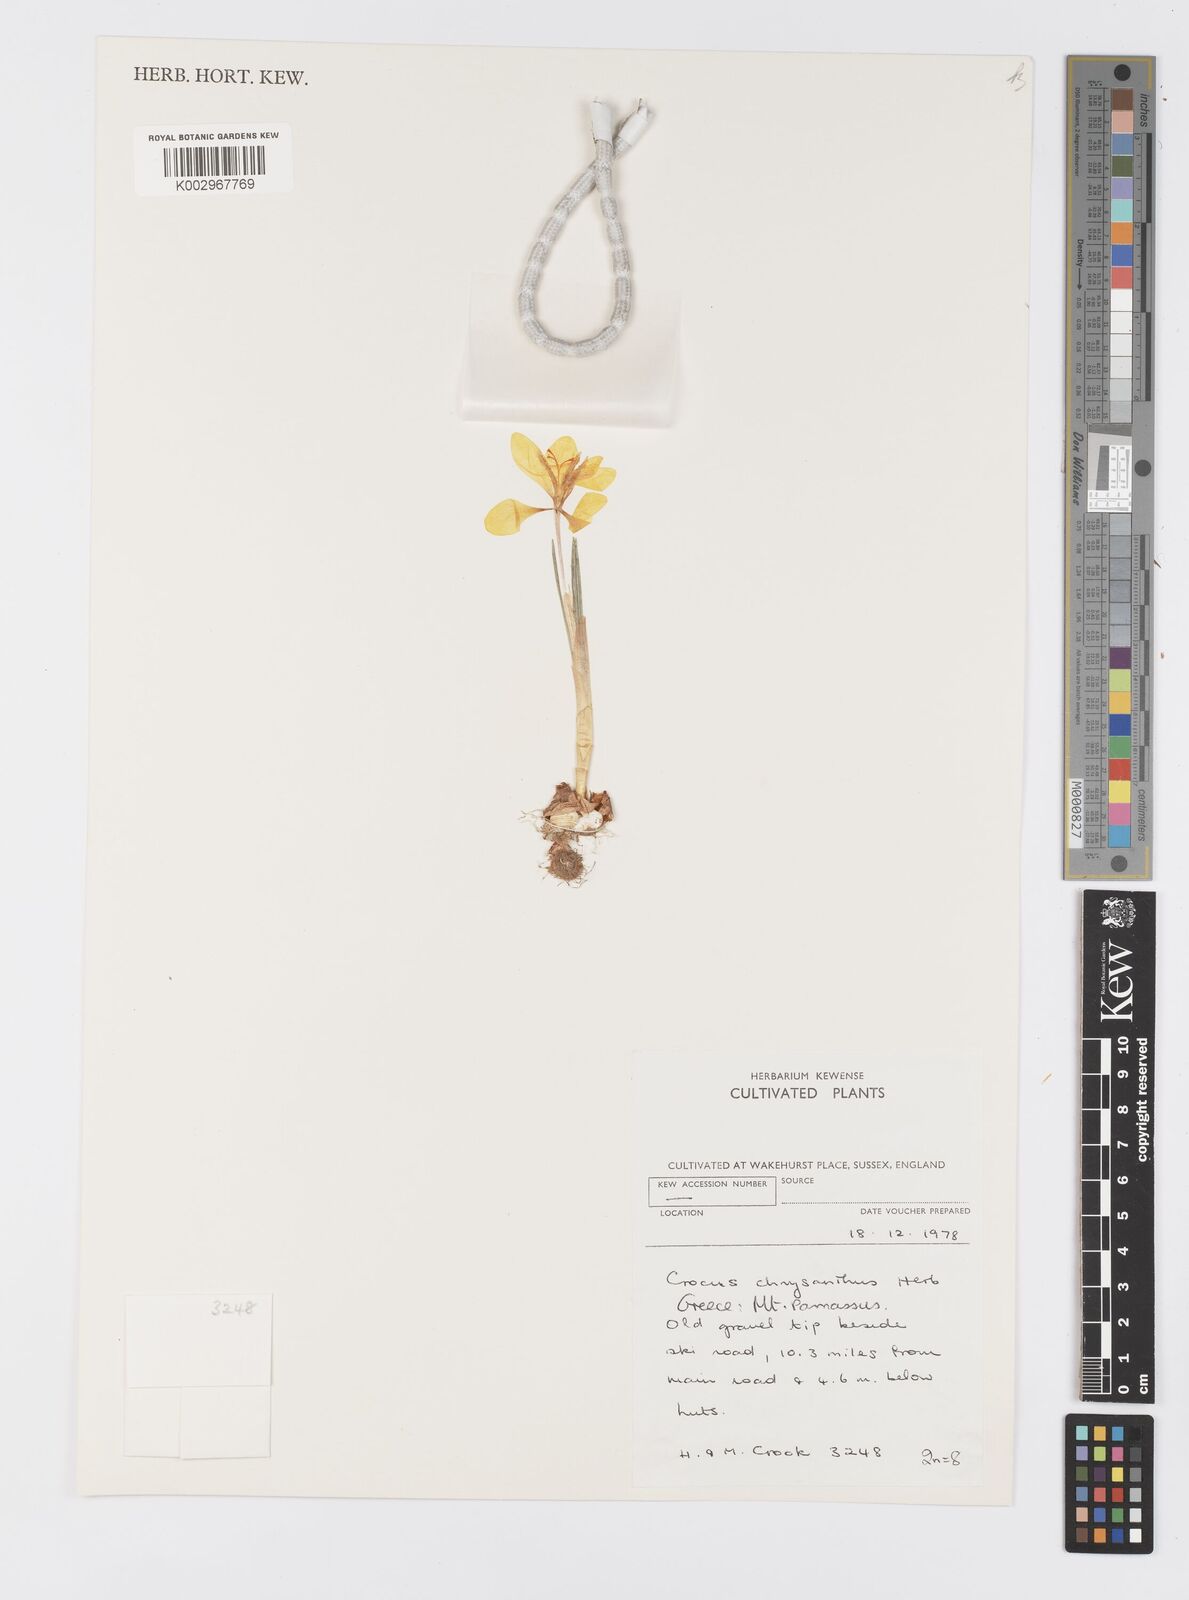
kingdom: Plantae
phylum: Tracheophyta
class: Liliopsida
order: Asparagales
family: Iridaceae
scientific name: Iridaceae
